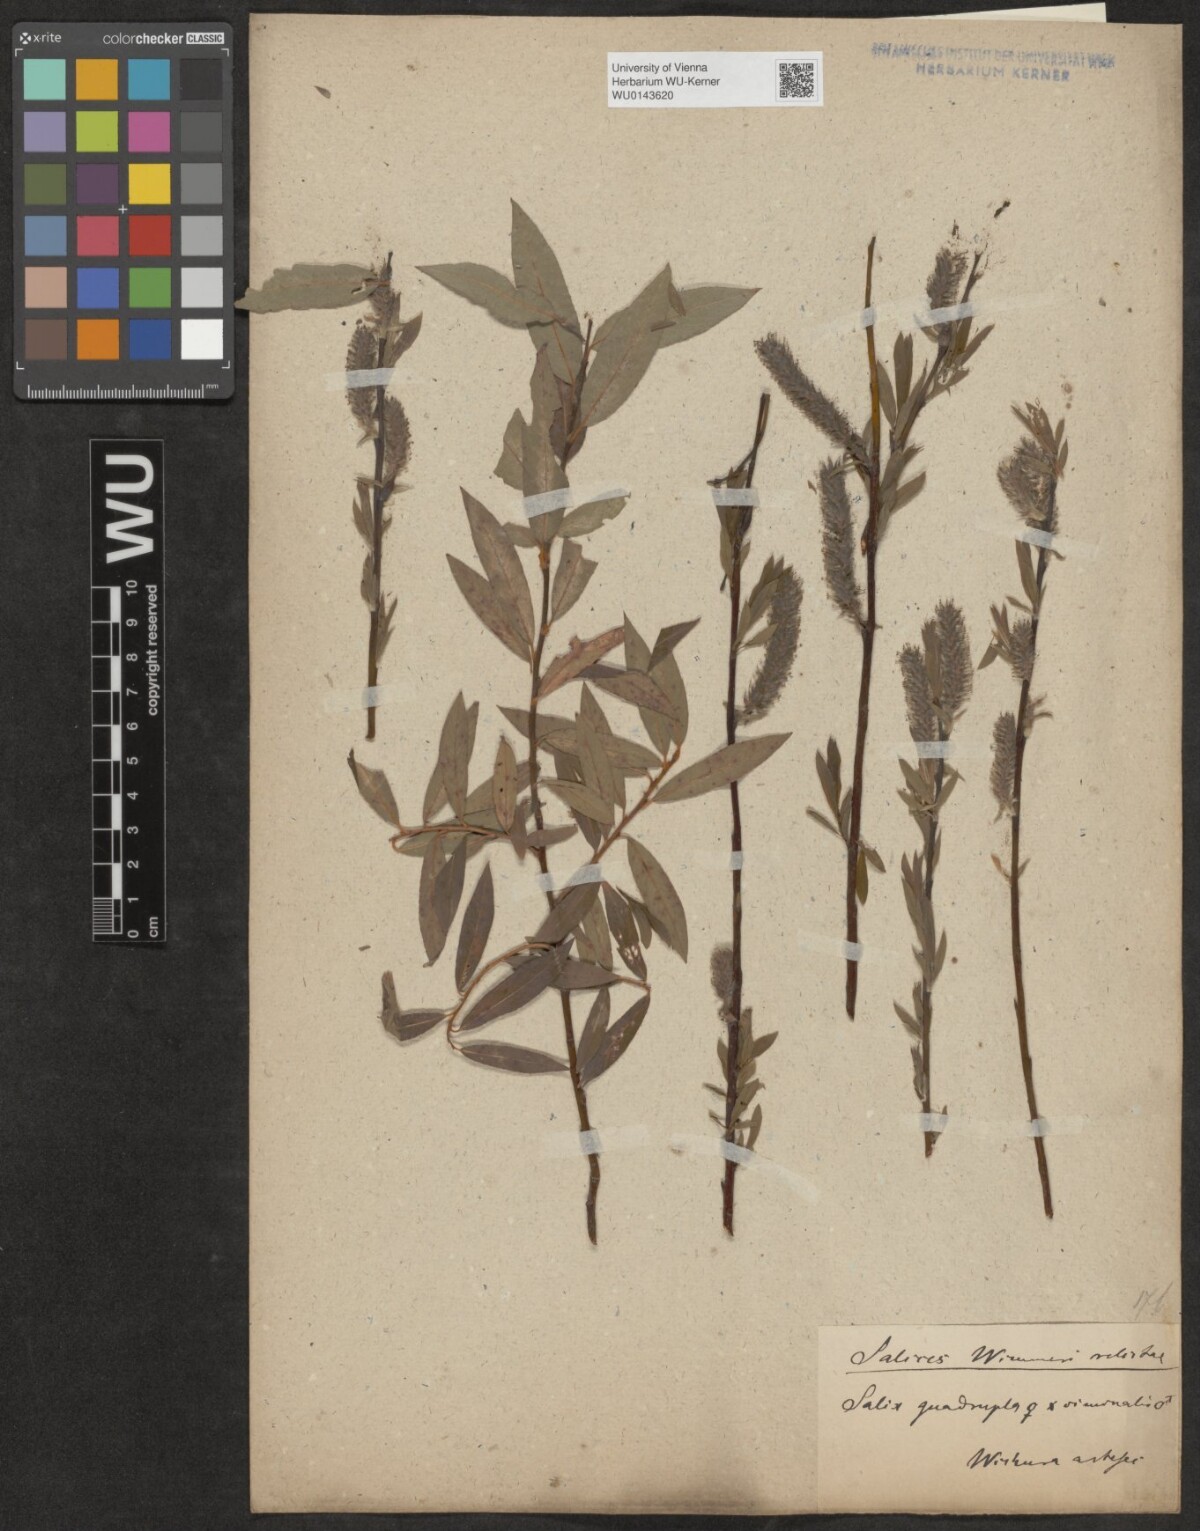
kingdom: Plantae
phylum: Tracheophyta
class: Magnoliopsida
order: Malpighiales
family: Salicaceae
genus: Salix
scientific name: Salix
